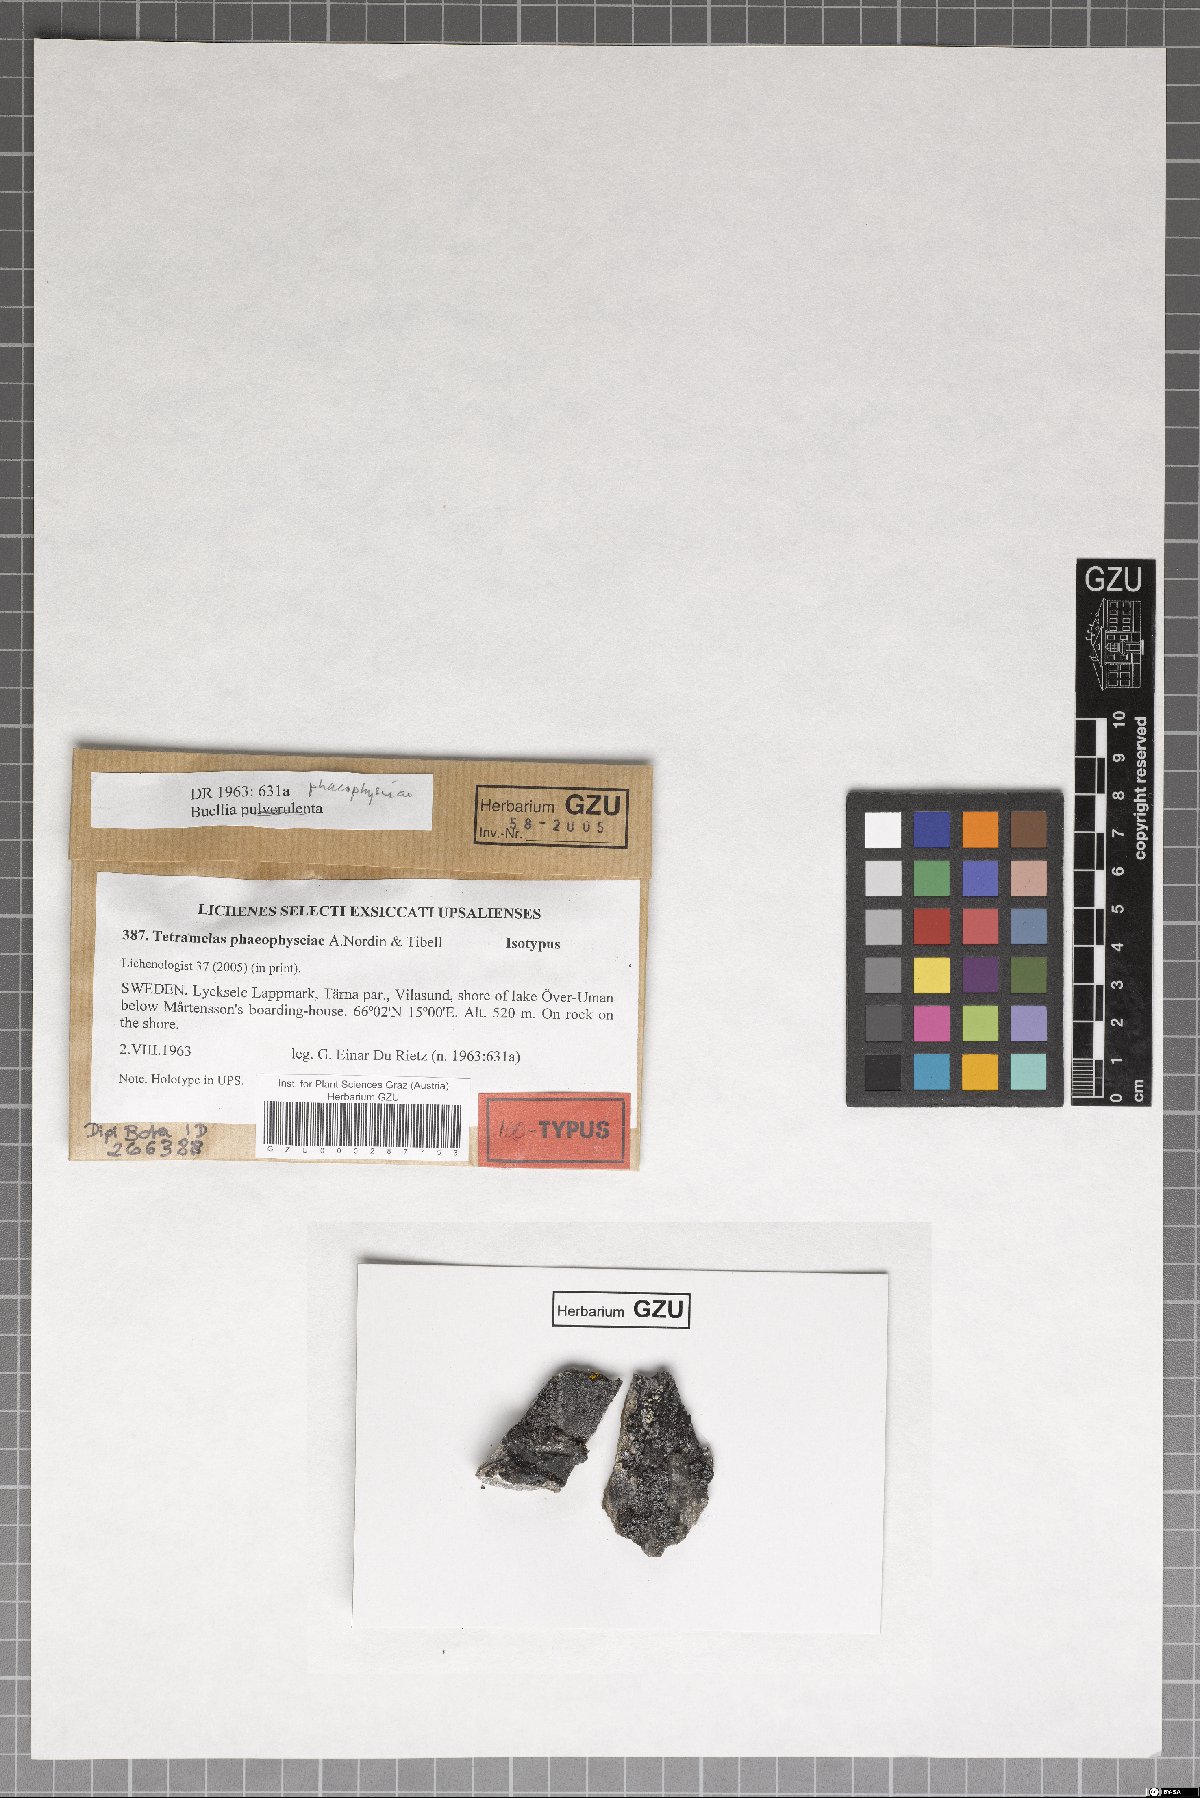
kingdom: Fungi
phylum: Ascomycota
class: Lecanoromycetes
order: Caliciales
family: Caliciaceae
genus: Tetramelas
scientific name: Tetramelas phaeophysciae
